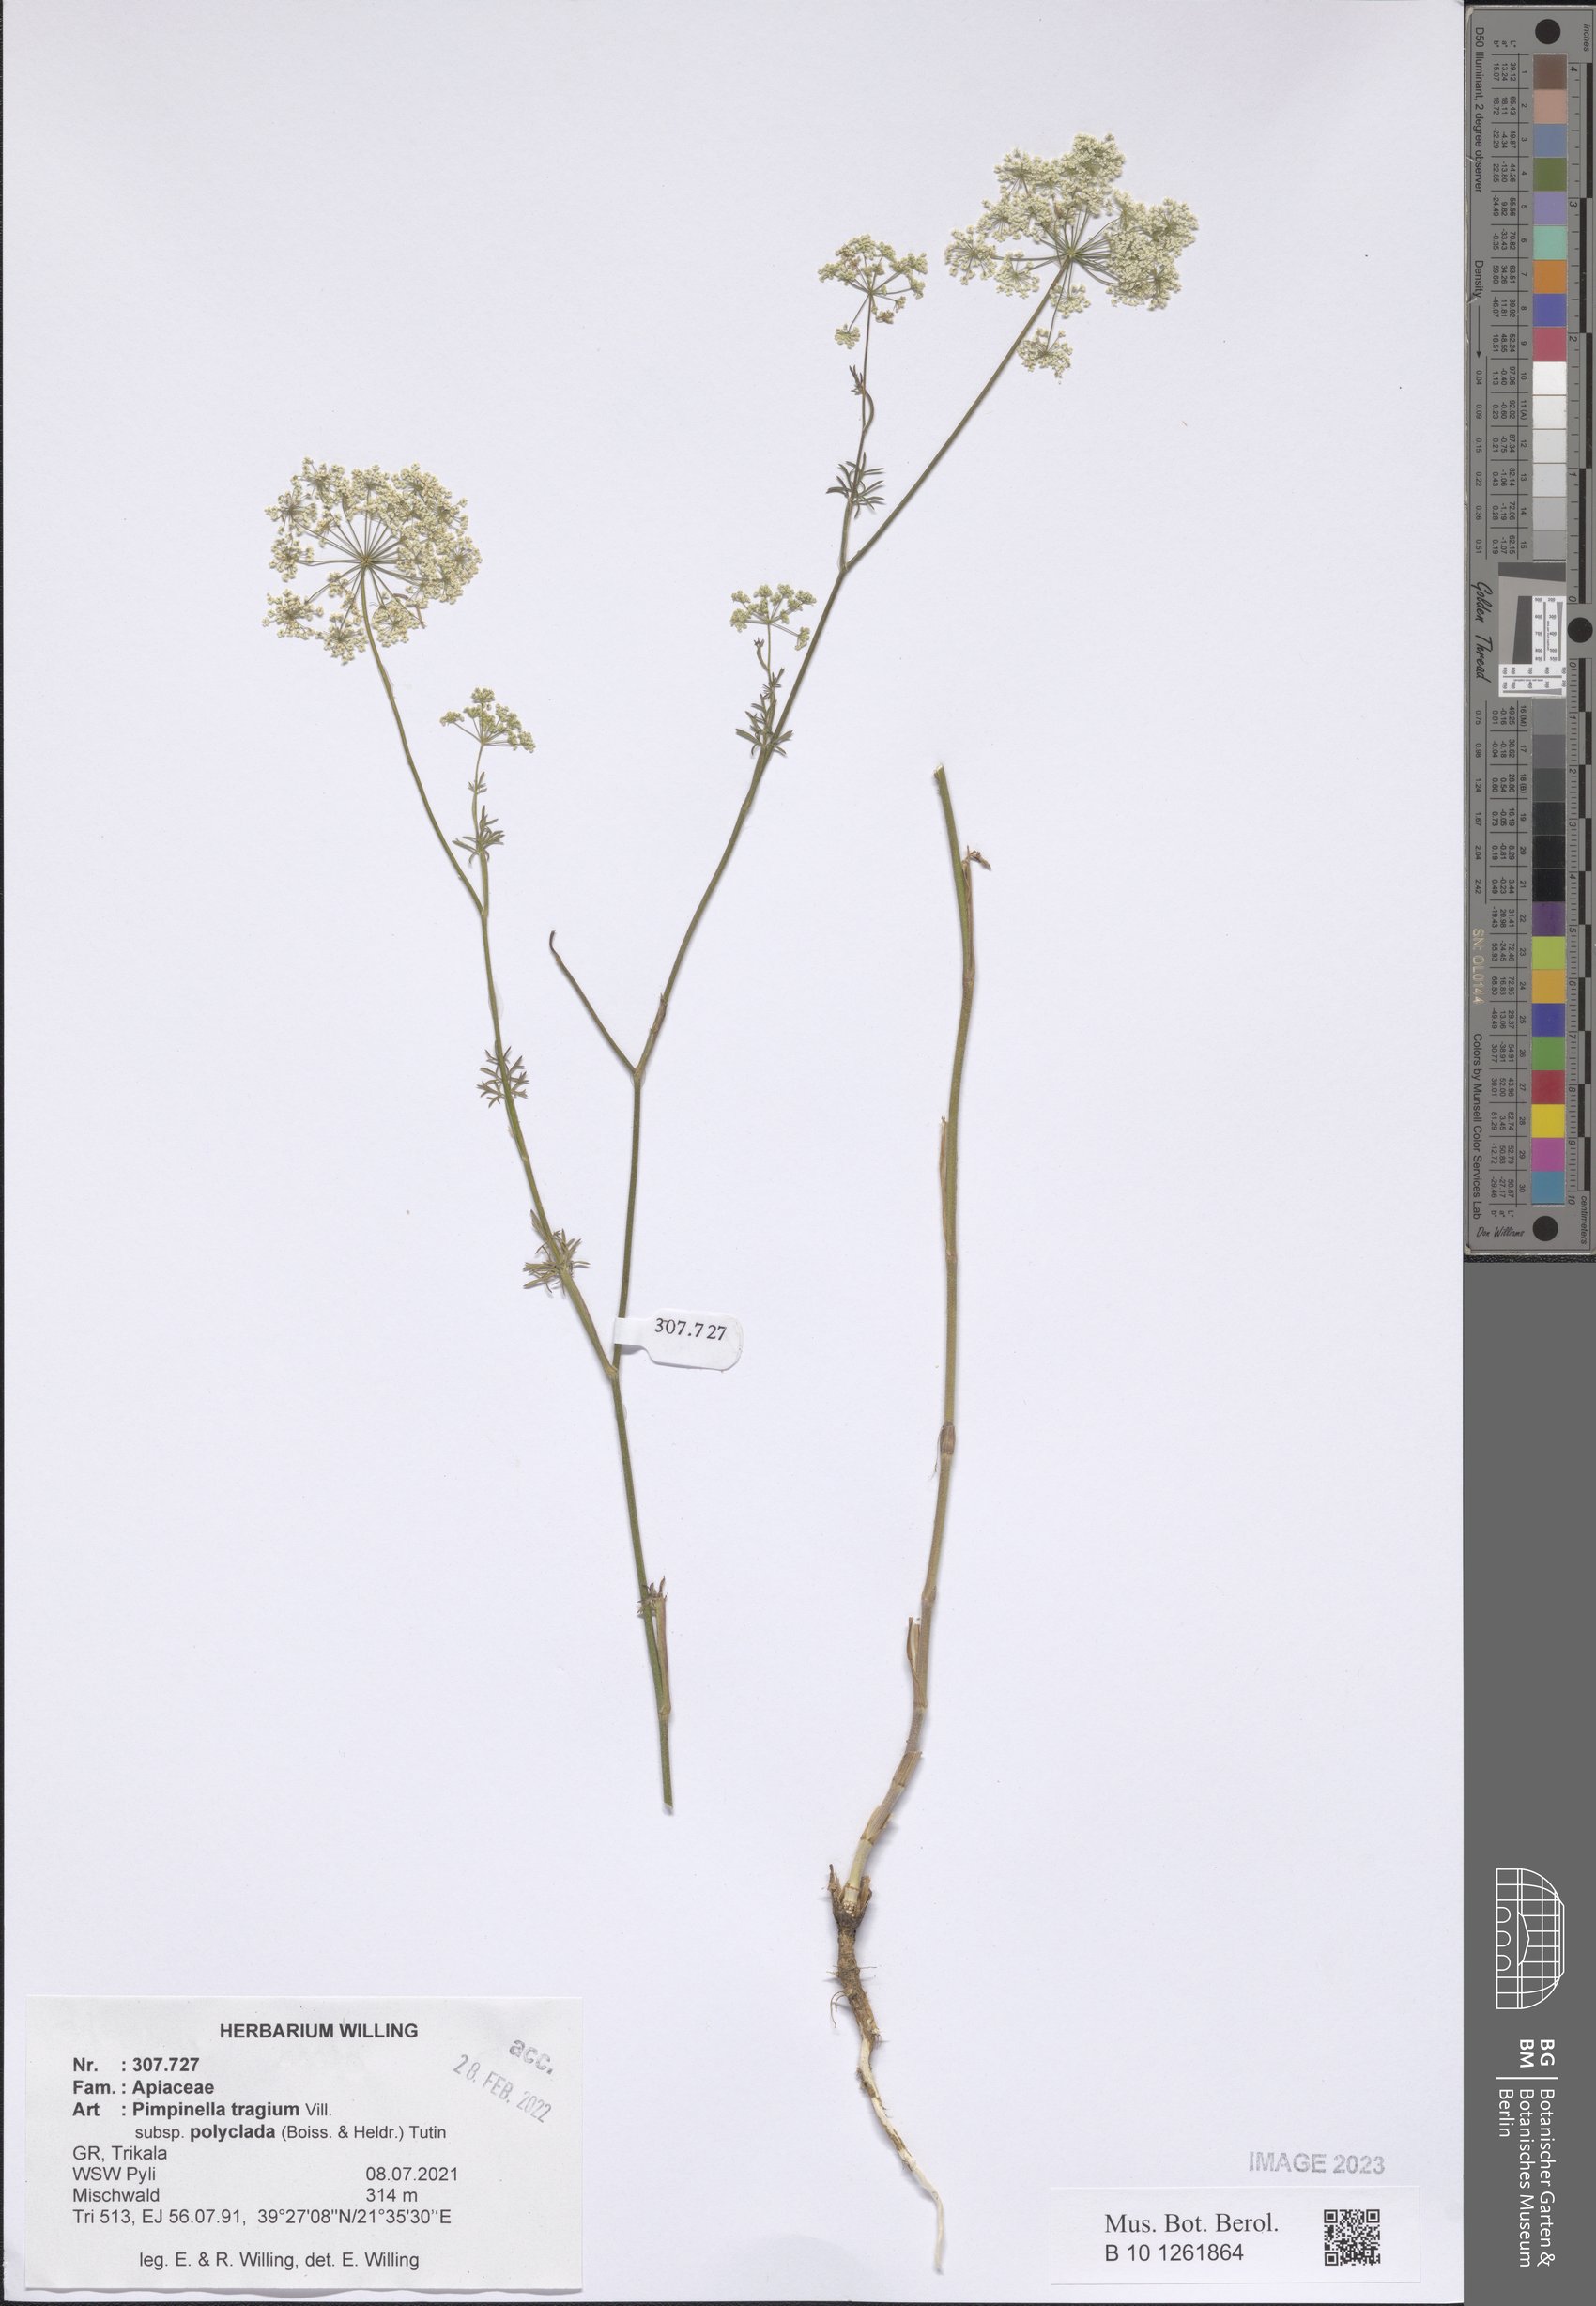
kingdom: Plantae
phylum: Tracheophyta
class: Magnoliopsida
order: Apiales
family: Apiaceae
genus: Pimpinella
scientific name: Pimpinella tragium
